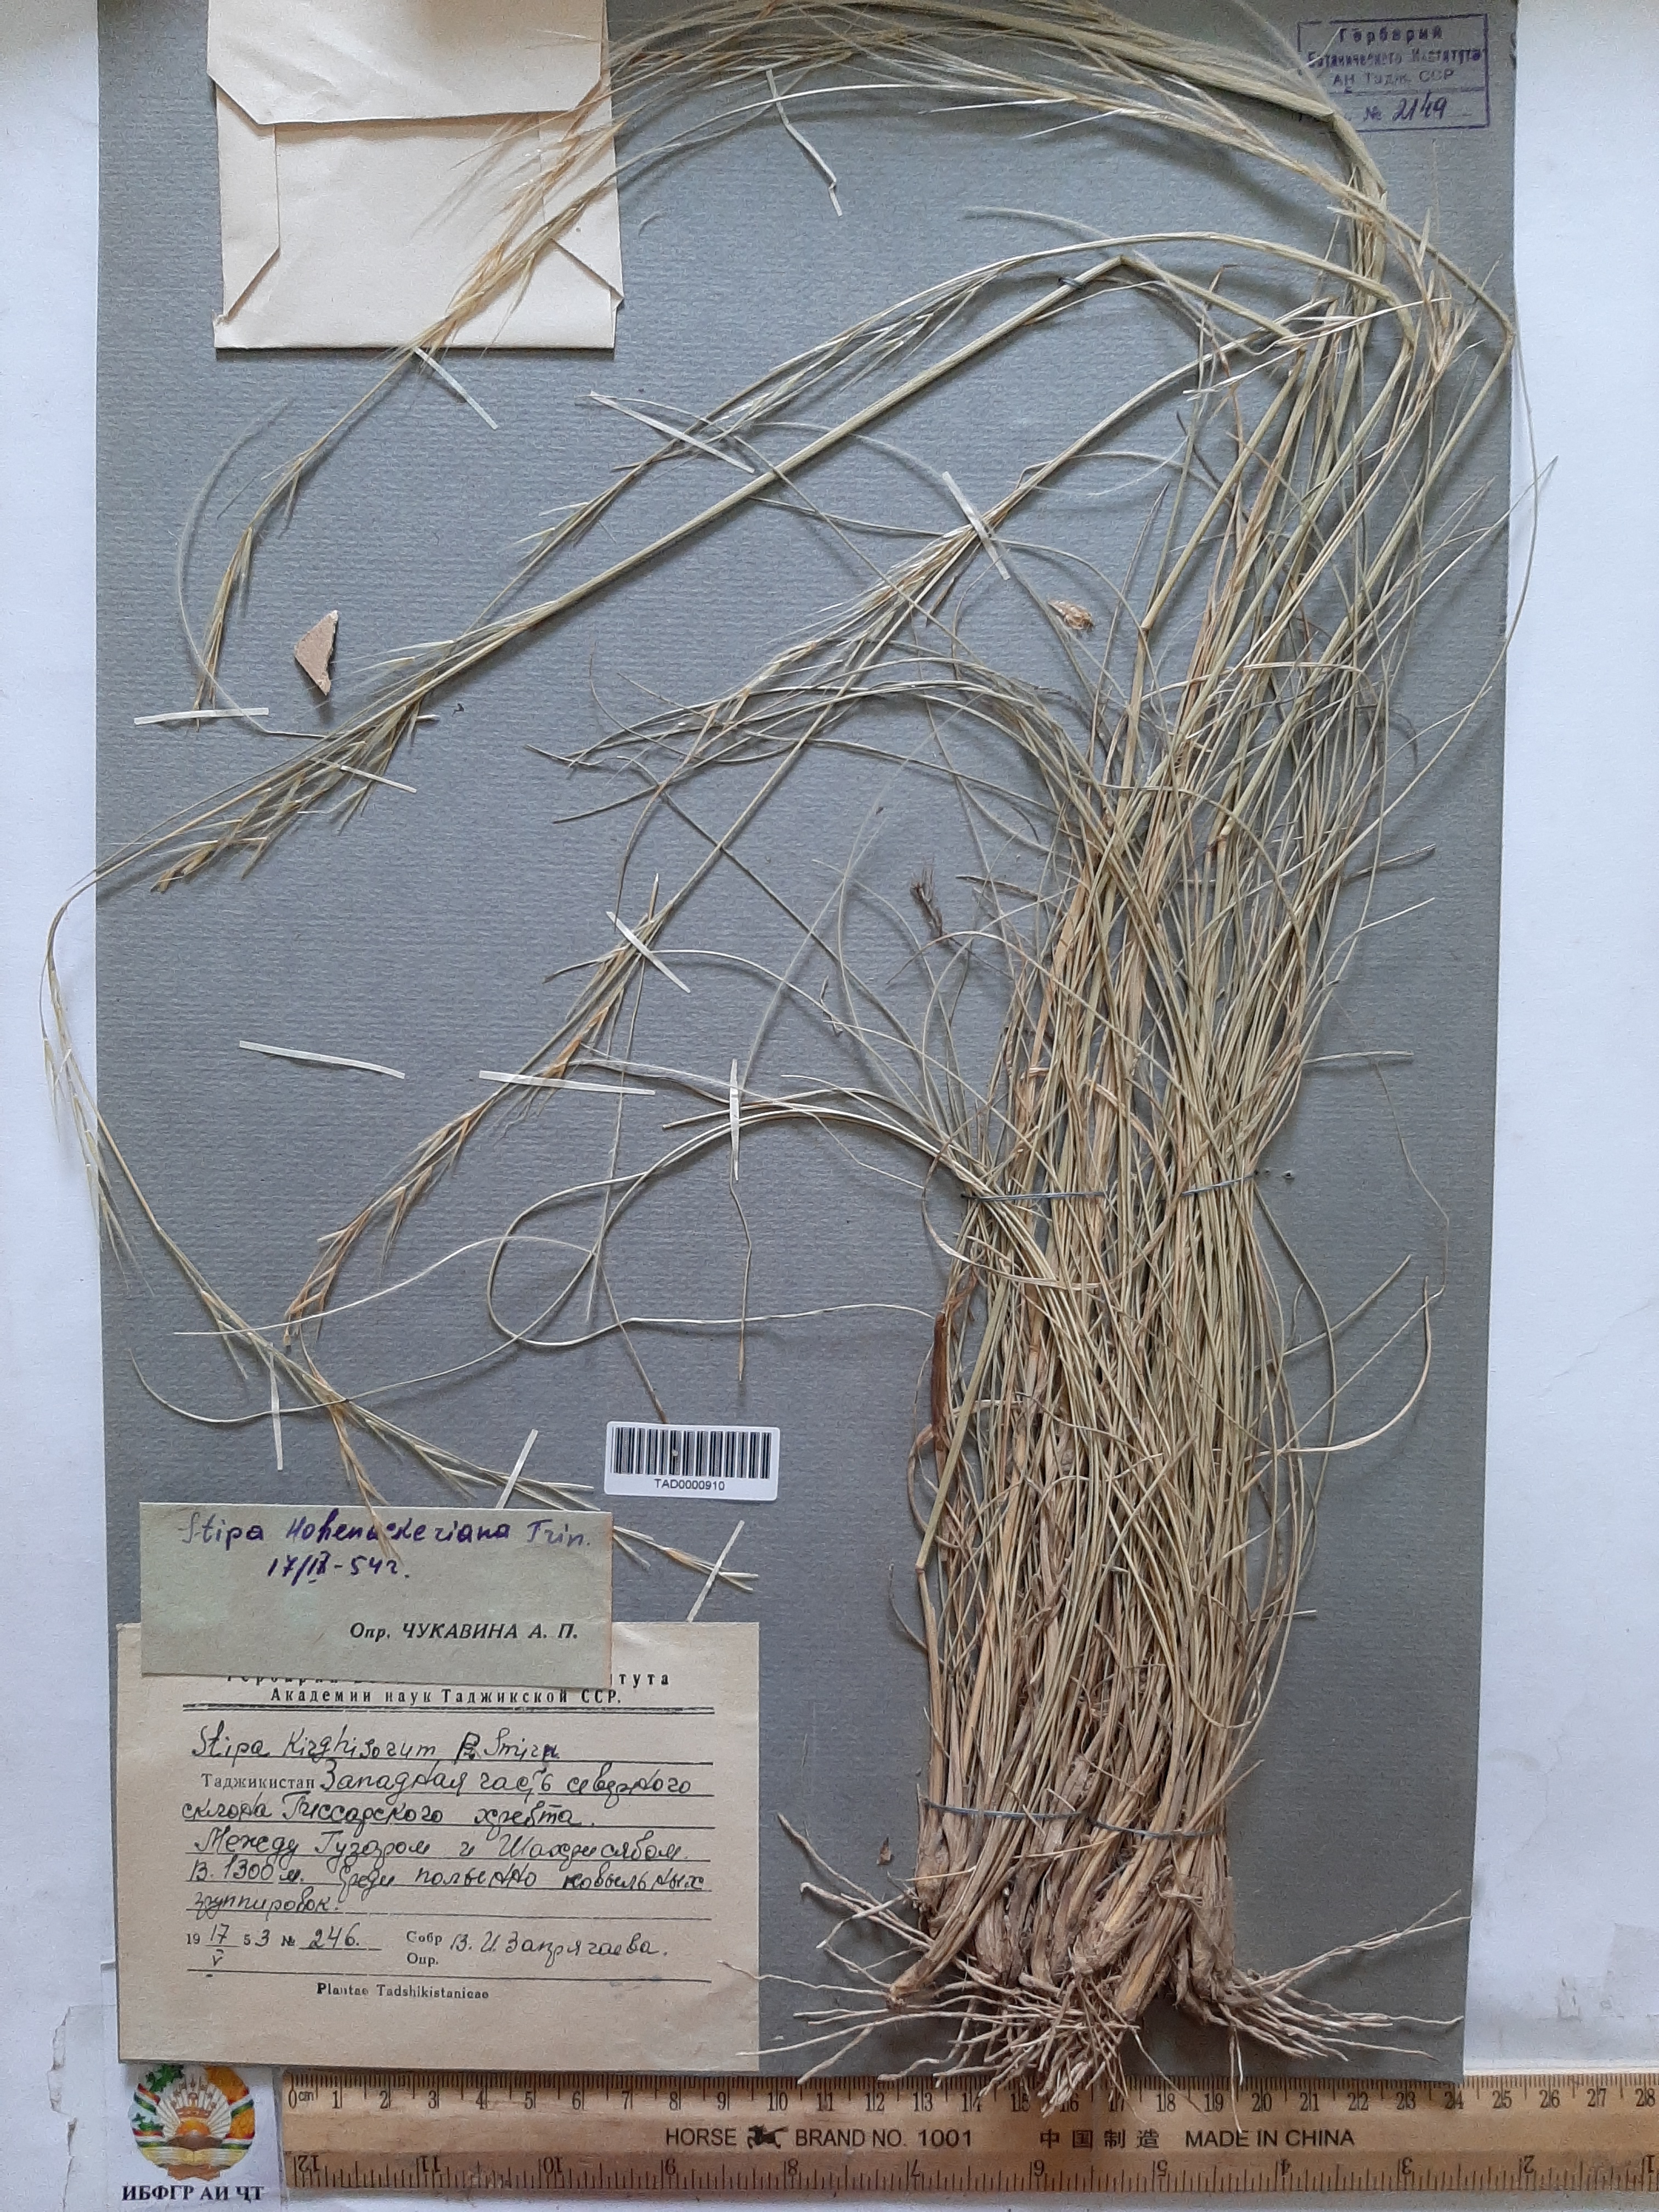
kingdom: Plantae
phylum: Tracheophyta
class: Liliopsida
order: Poales
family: Poaceae
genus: Stipa
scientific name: Stipa hohenackeriana
